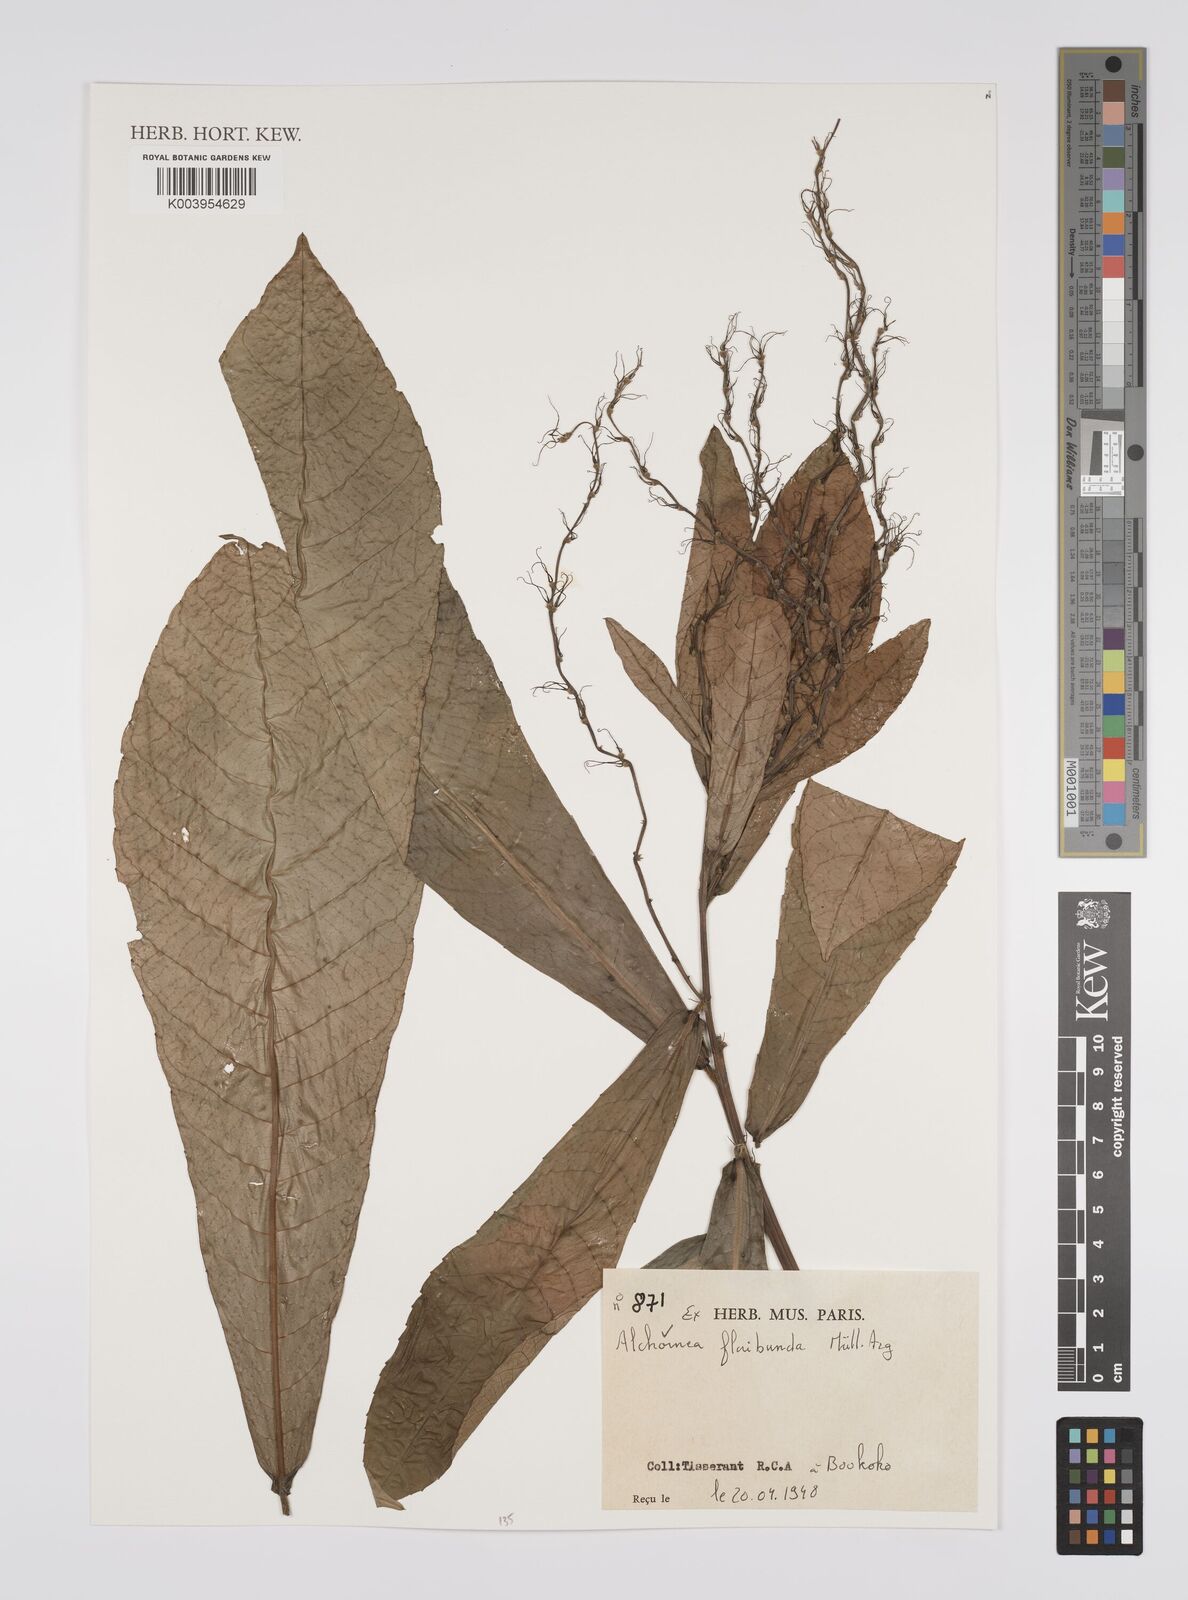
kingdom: Plantae
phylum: Tracheophyta
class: Magnoliopsida
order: Malpighiales
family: Euphorbiaceae
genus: Alchornea
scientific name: Alchornea floribunda
